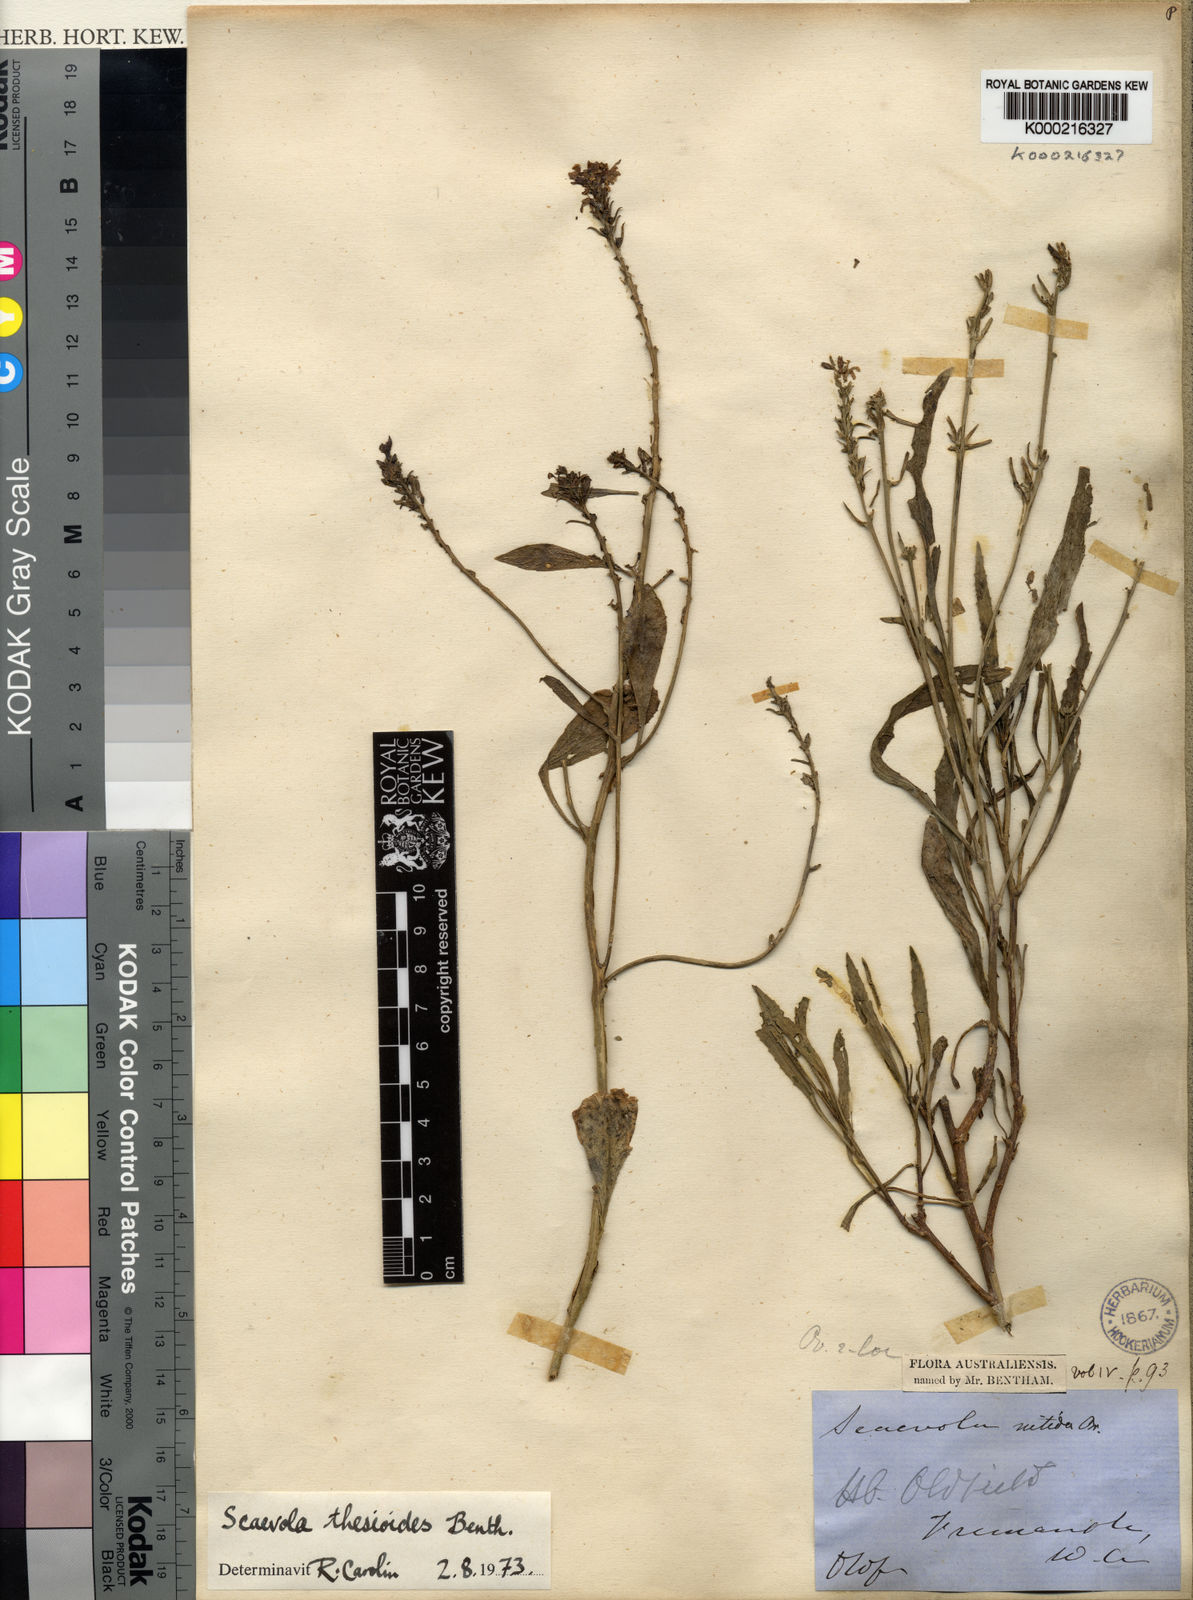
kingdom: Plantae
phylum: Tracheophyta
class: Magnoliopsida
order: Asterales
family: Goodeniaceae
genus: Scaevola
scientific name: Scaevola thesioides
